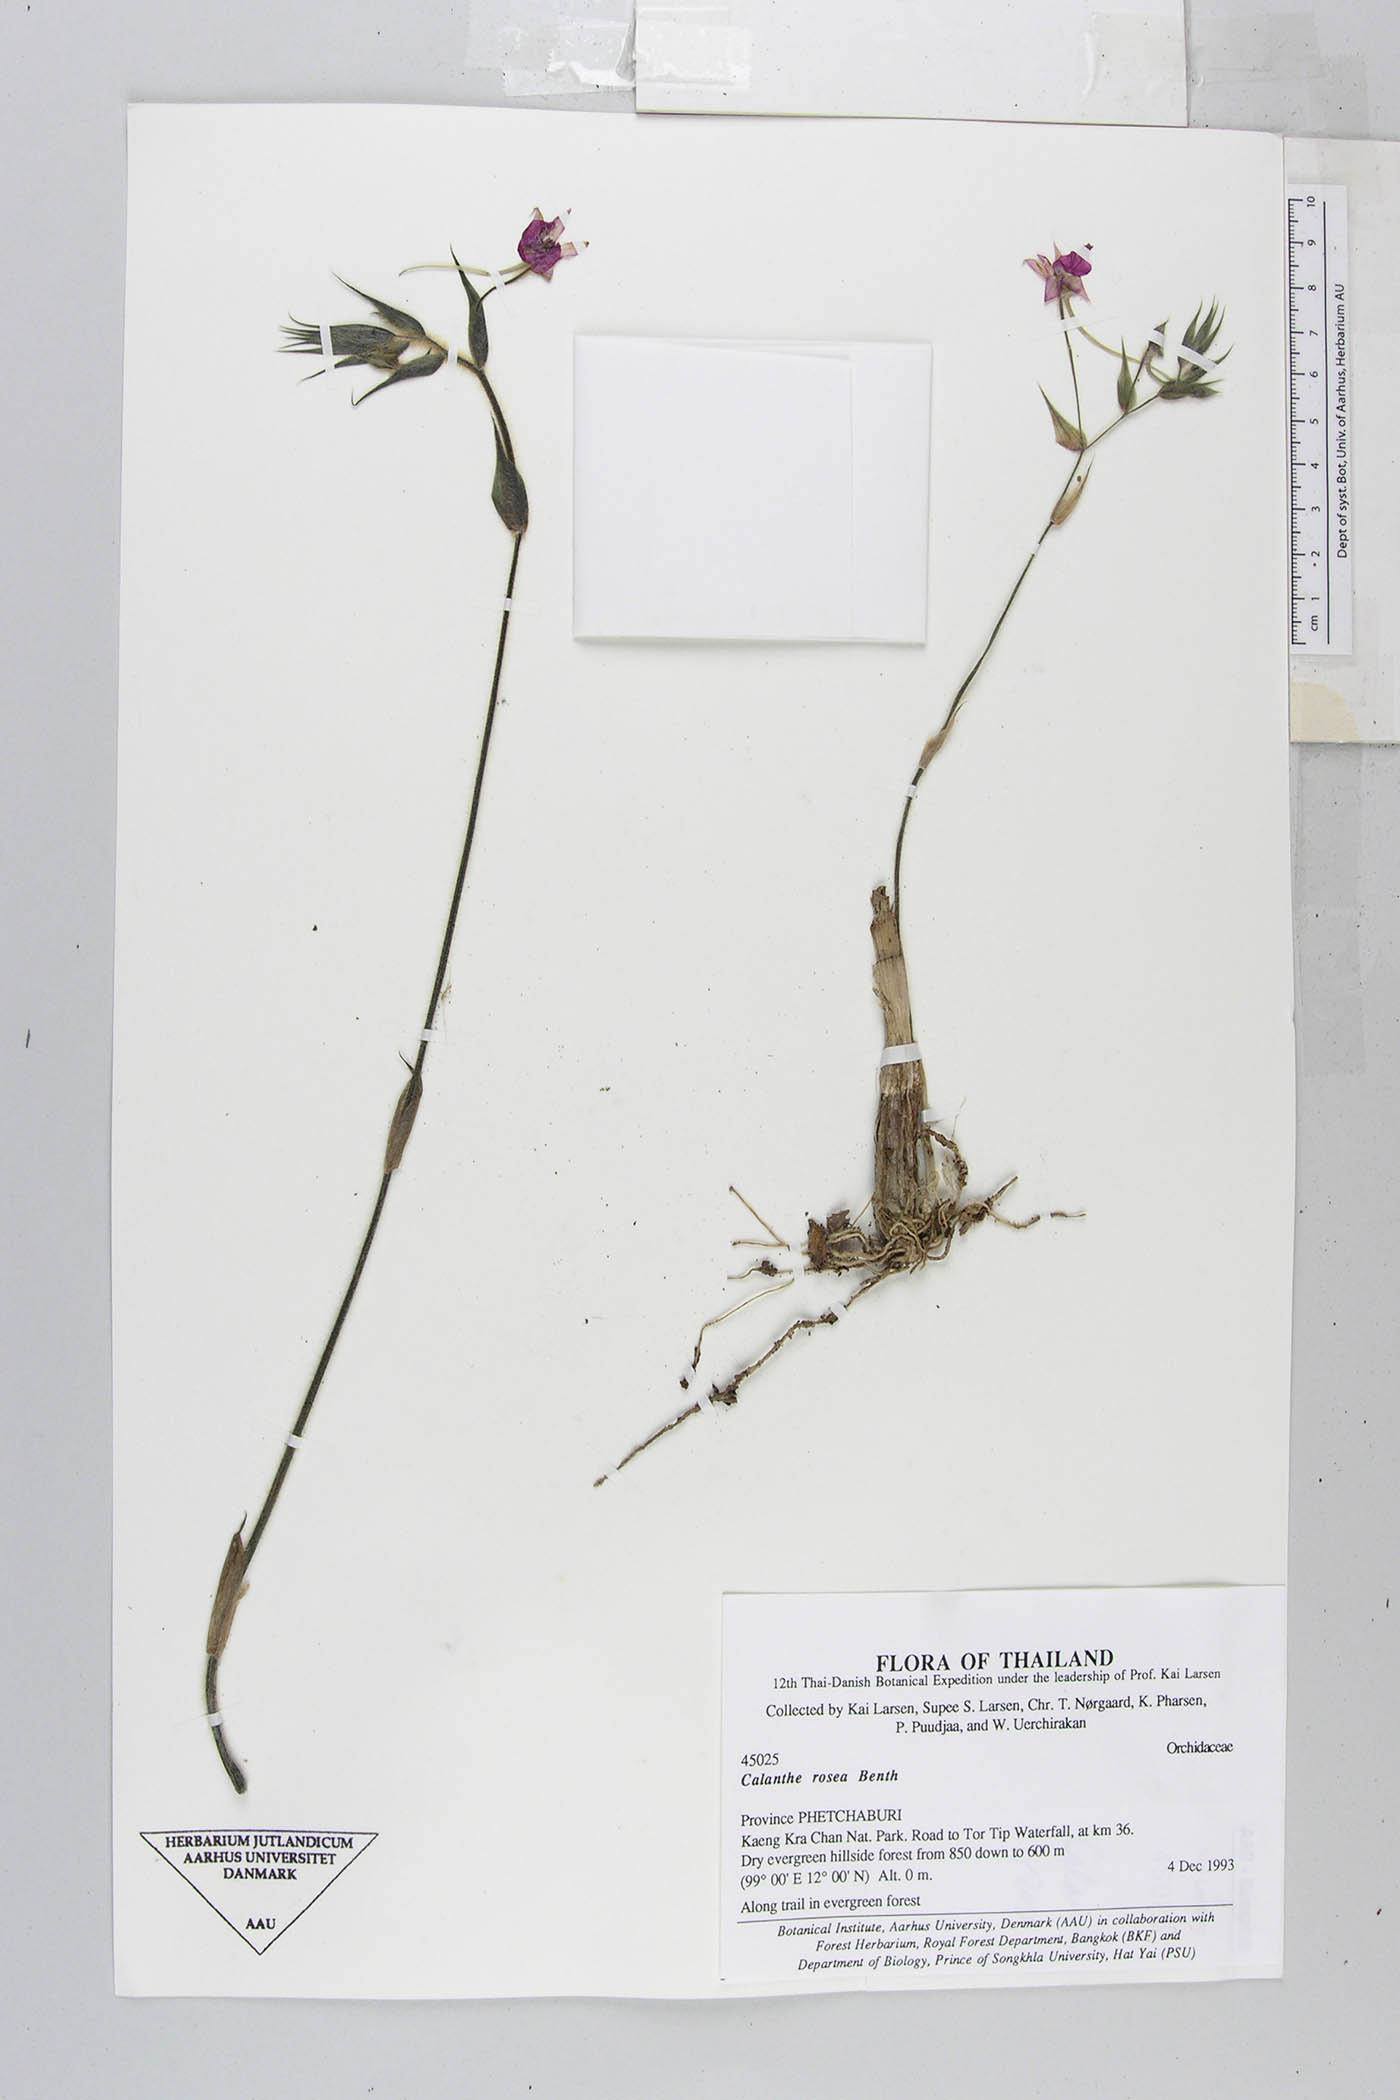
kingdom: Plantae
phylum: Tracheophyta
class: Liliopsida
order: Asparagales
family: Orchidaceae
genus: Calanthe
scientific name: Calanthe rosea
